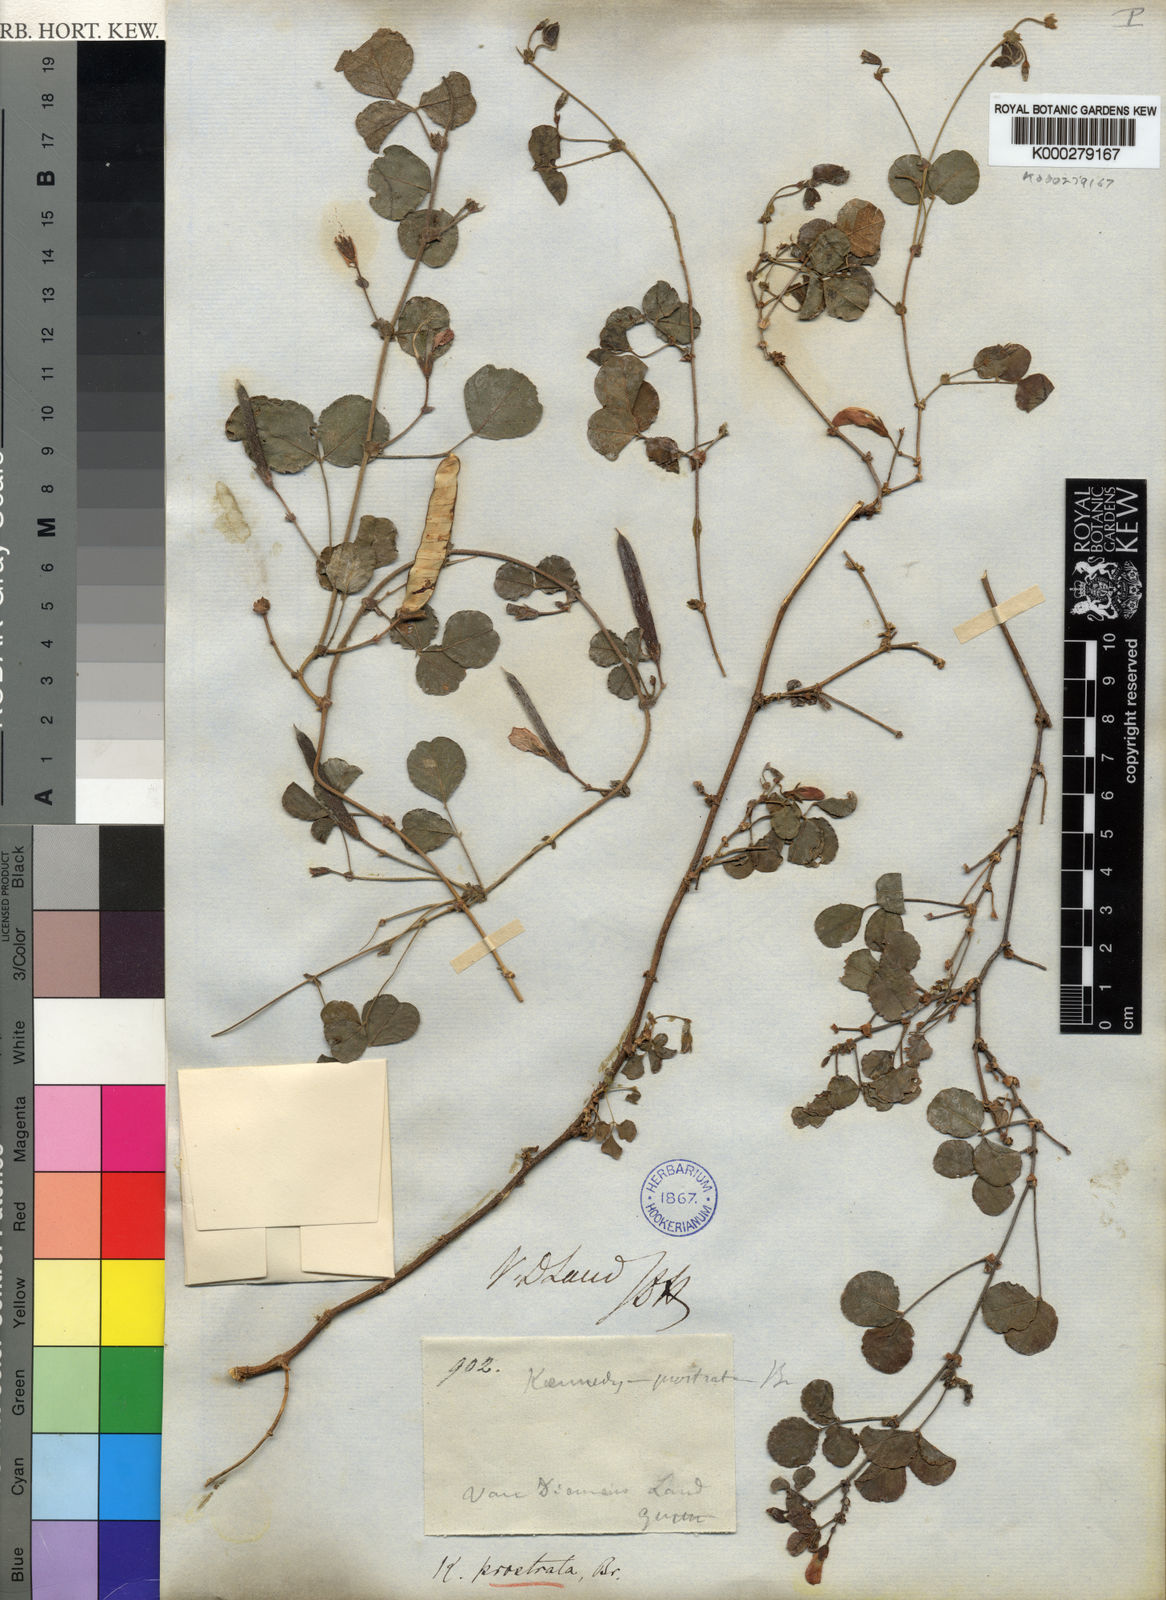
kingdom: Plantae
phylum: Tracheophyta
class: Magnoliopsida
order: Fabales
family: Fabaceae
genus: Kennedia
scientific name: Kennedia prostrata
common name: Running-postman
